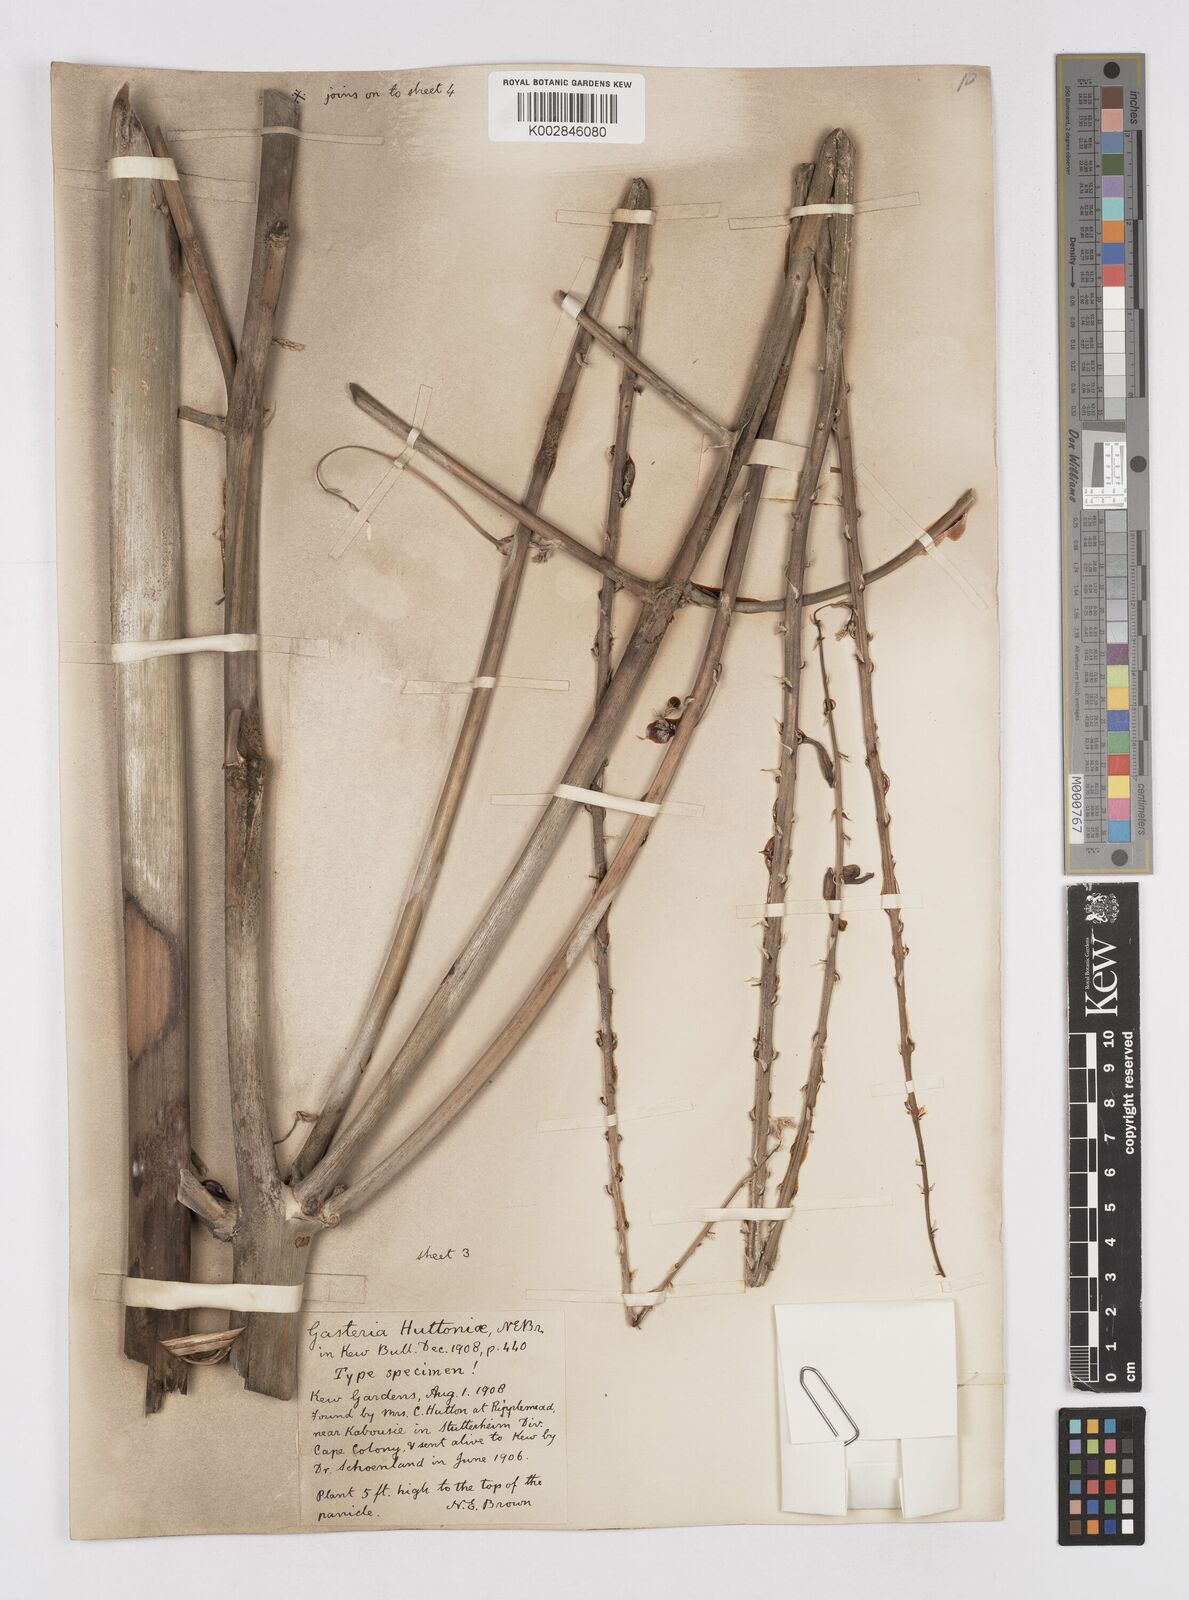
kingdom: Plantae
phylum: Tracheophyta
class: Liliopsida
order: Asparagales
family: Asphodelaceae
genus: Gasteria
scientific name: Gasteria acinacifolia
